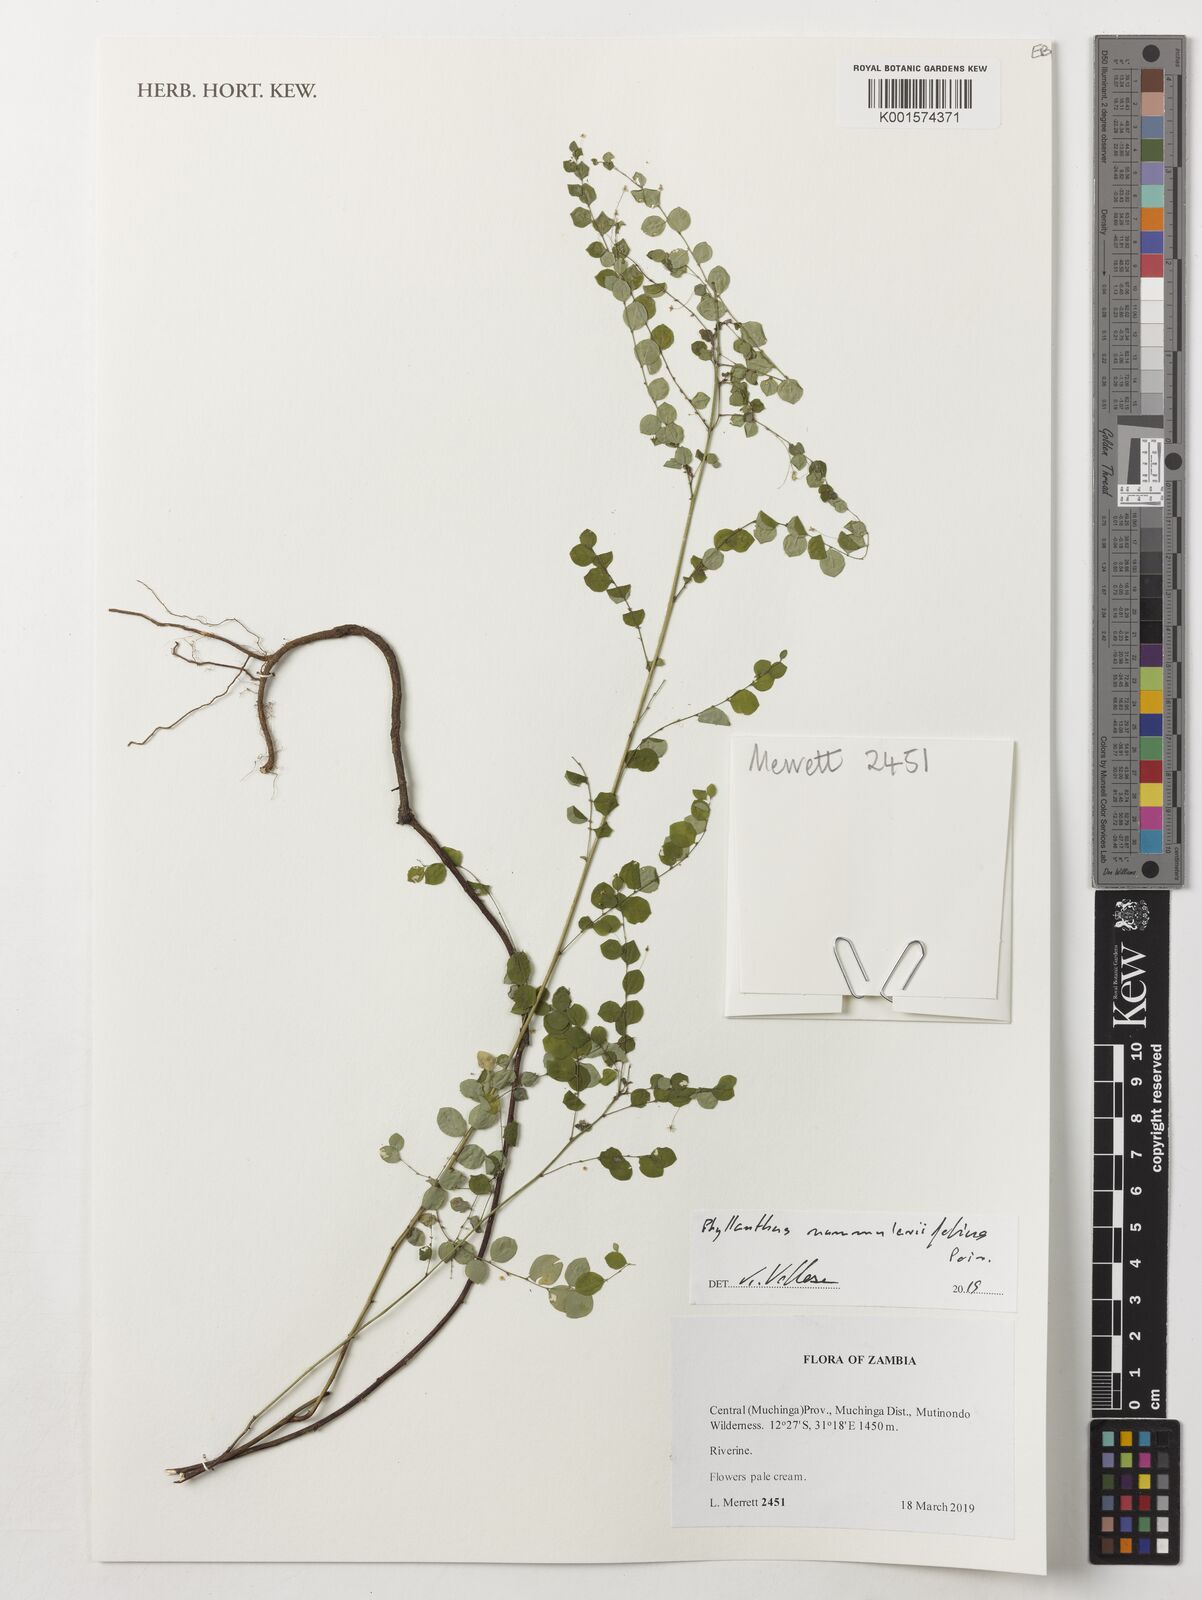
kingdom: Plantae
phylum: Tracheophyta
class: Magnoliopsida
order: Malpighiales
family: Phyllanthaceae
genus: Phyllanthus
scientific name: Phyllanthus nummulariifolius
